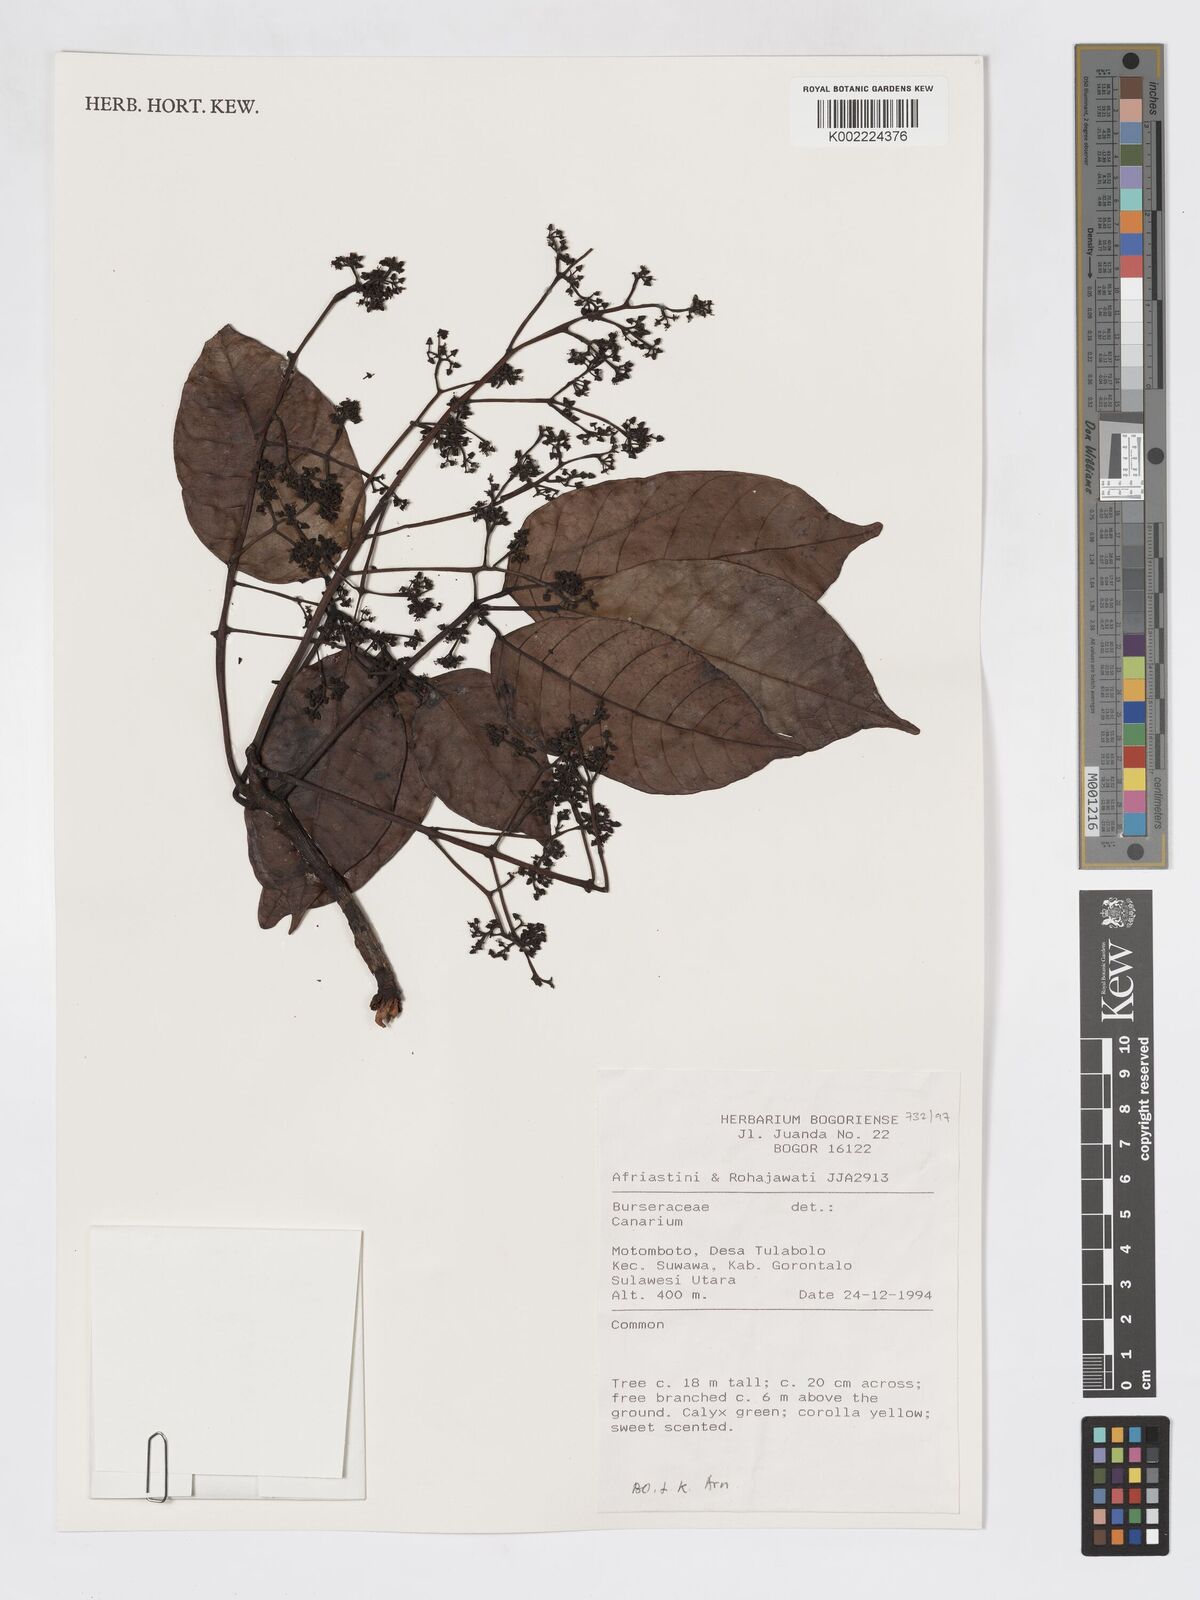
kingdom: Plantae
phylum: Tracheophyta
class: Magnoliopsida
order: Sapindales
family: Burseraceae
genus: Canarium
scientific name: Canarium
